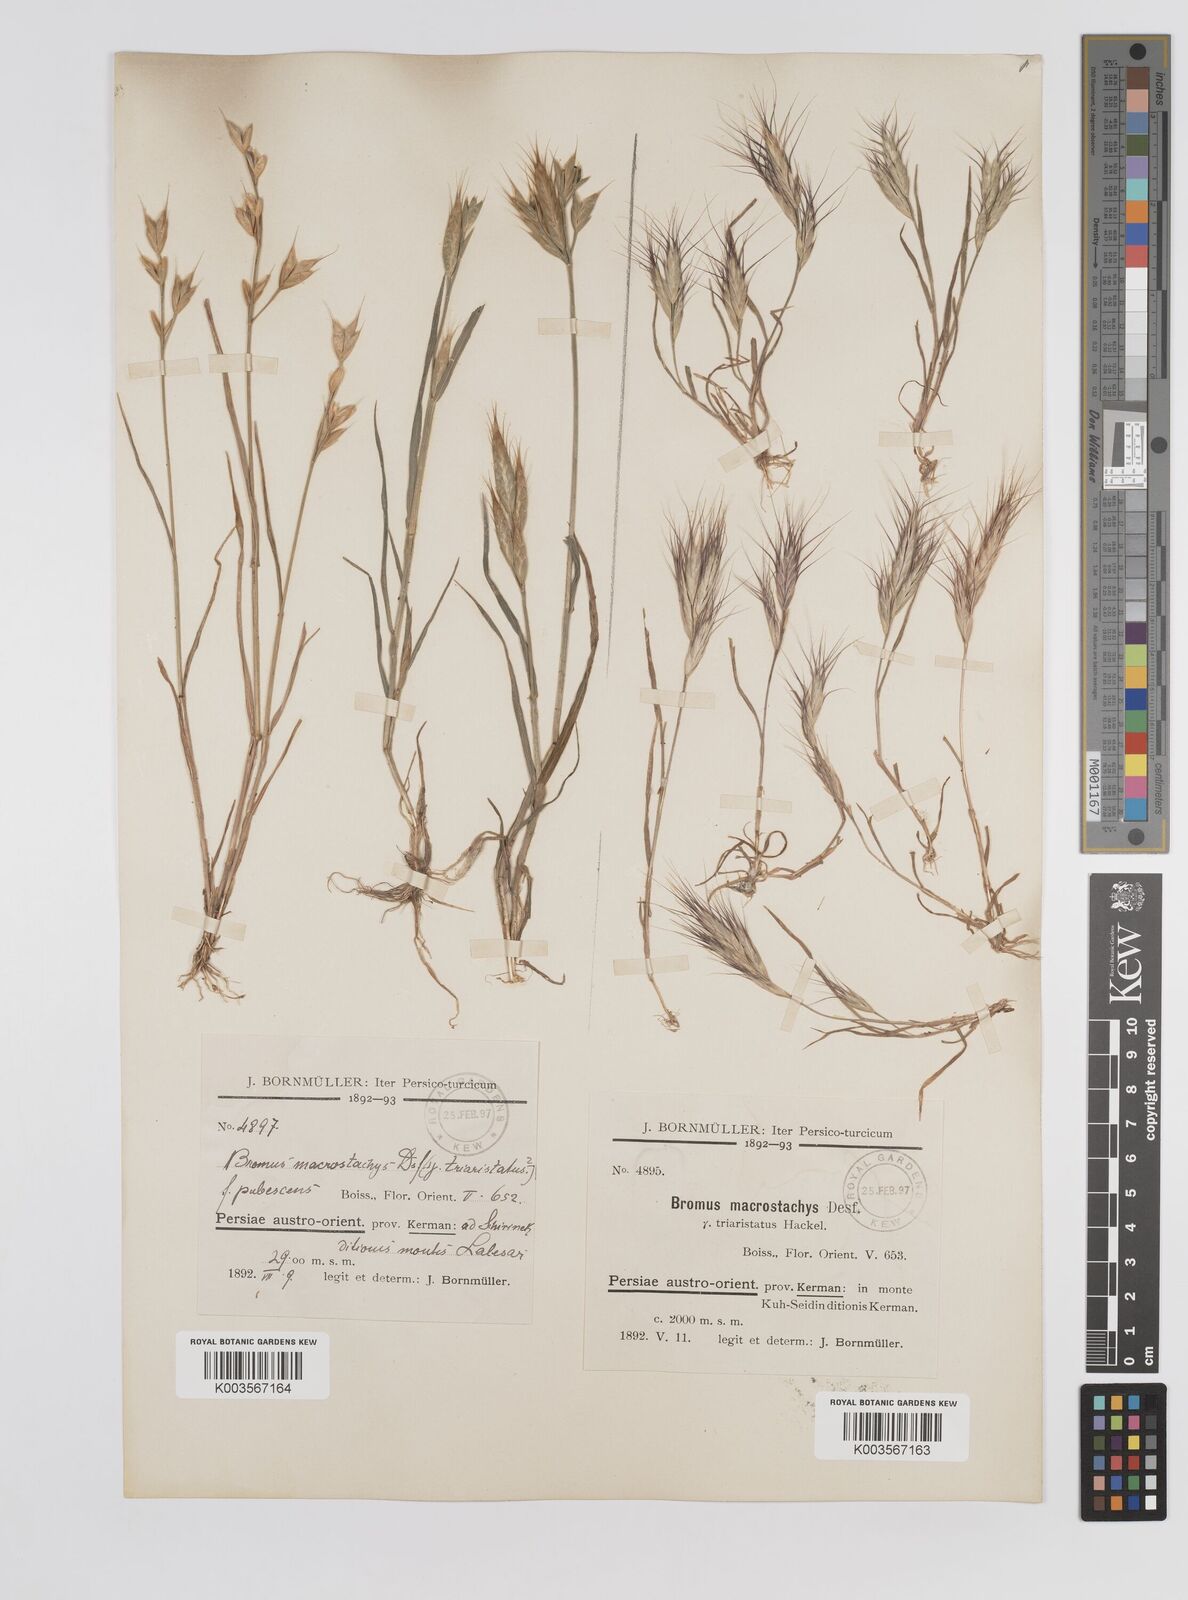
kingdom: Plantae
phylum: Tracheophyta
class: Liliopsida
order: Poales
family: Poaceae
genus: Bromus
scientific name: Bromus danthoniae
